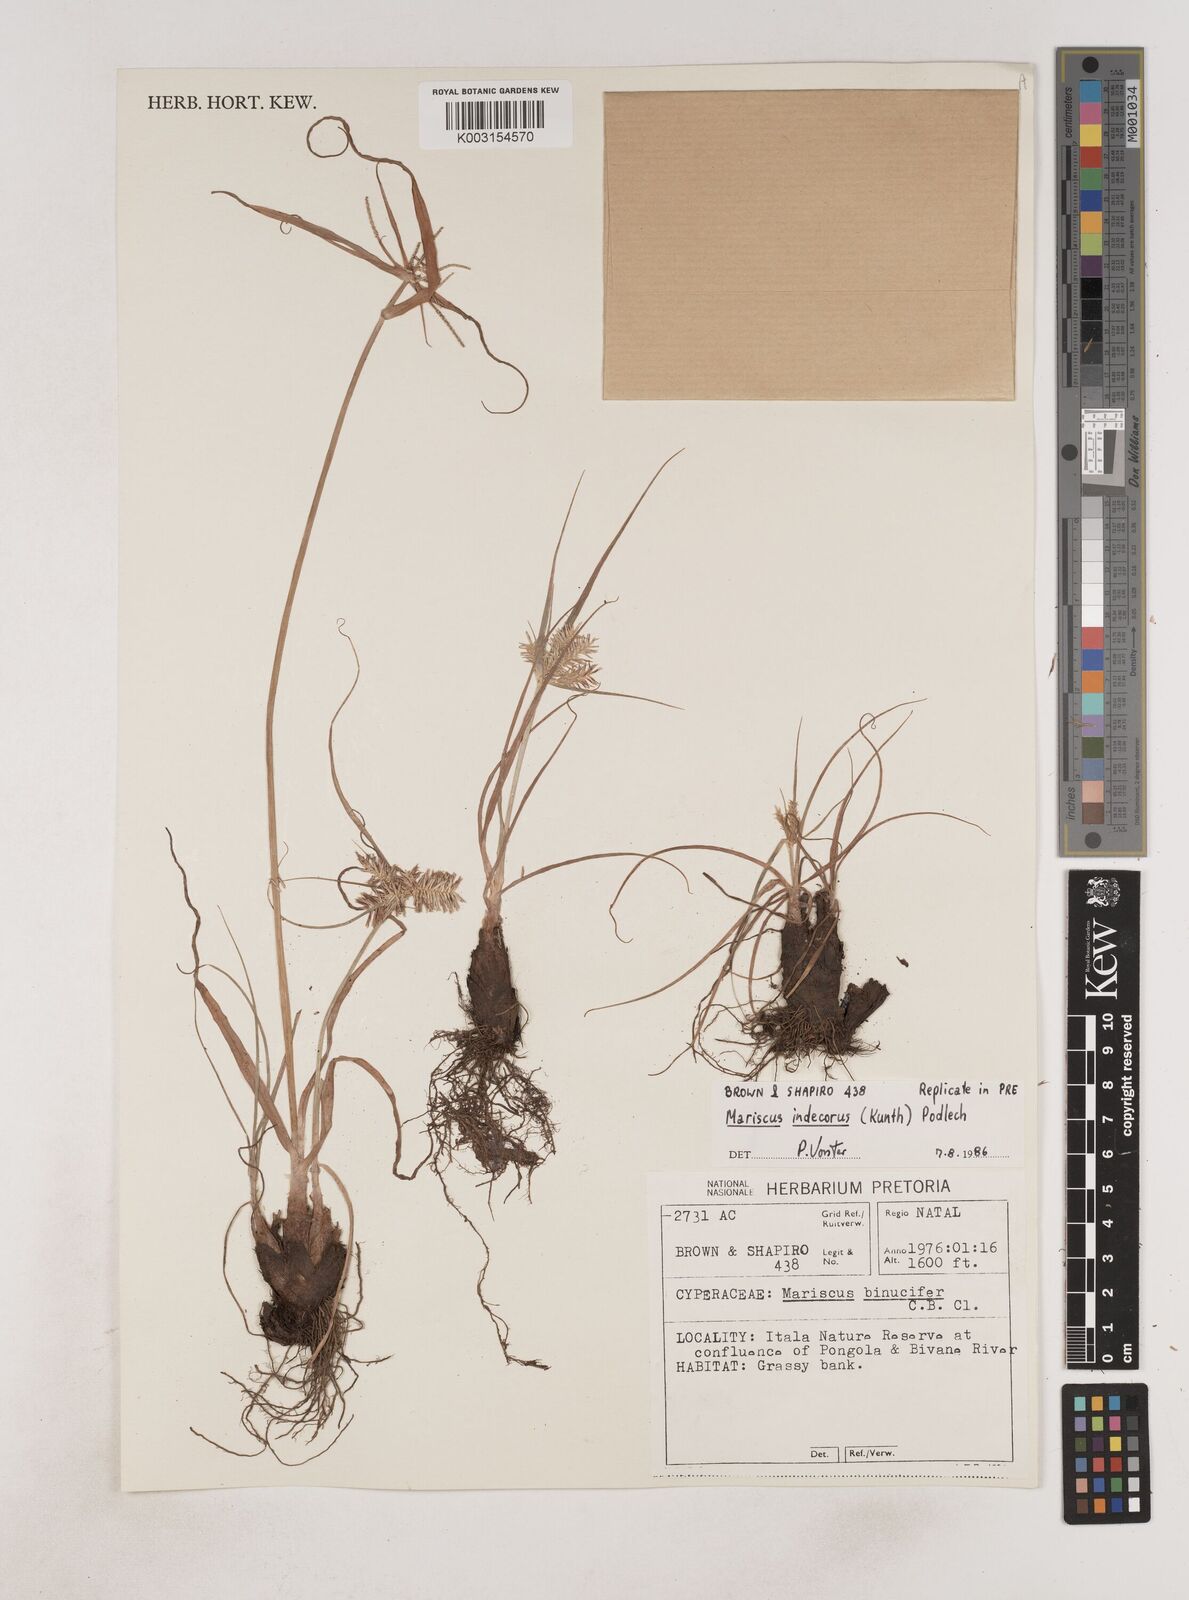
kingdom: Plantae
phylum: Tracheophyta
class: Liliopsida
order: Poales
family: Cyperaceae
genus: Cyperus
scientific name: Cyperus indecorus
